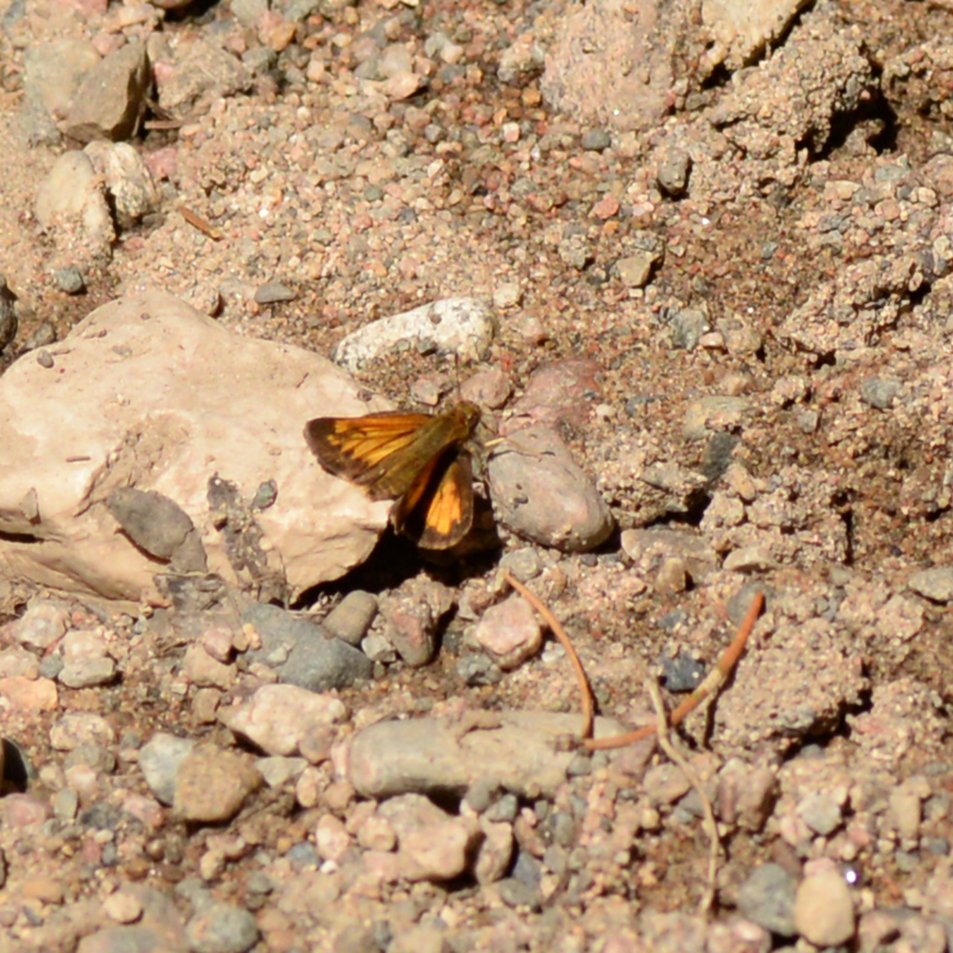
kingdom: Animalia
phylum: Arthropoda
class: Insecta
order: Lepidoptera
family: Hesperiidae
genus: Lon
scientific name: Lon hobomok
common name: Hobomok Skipper
